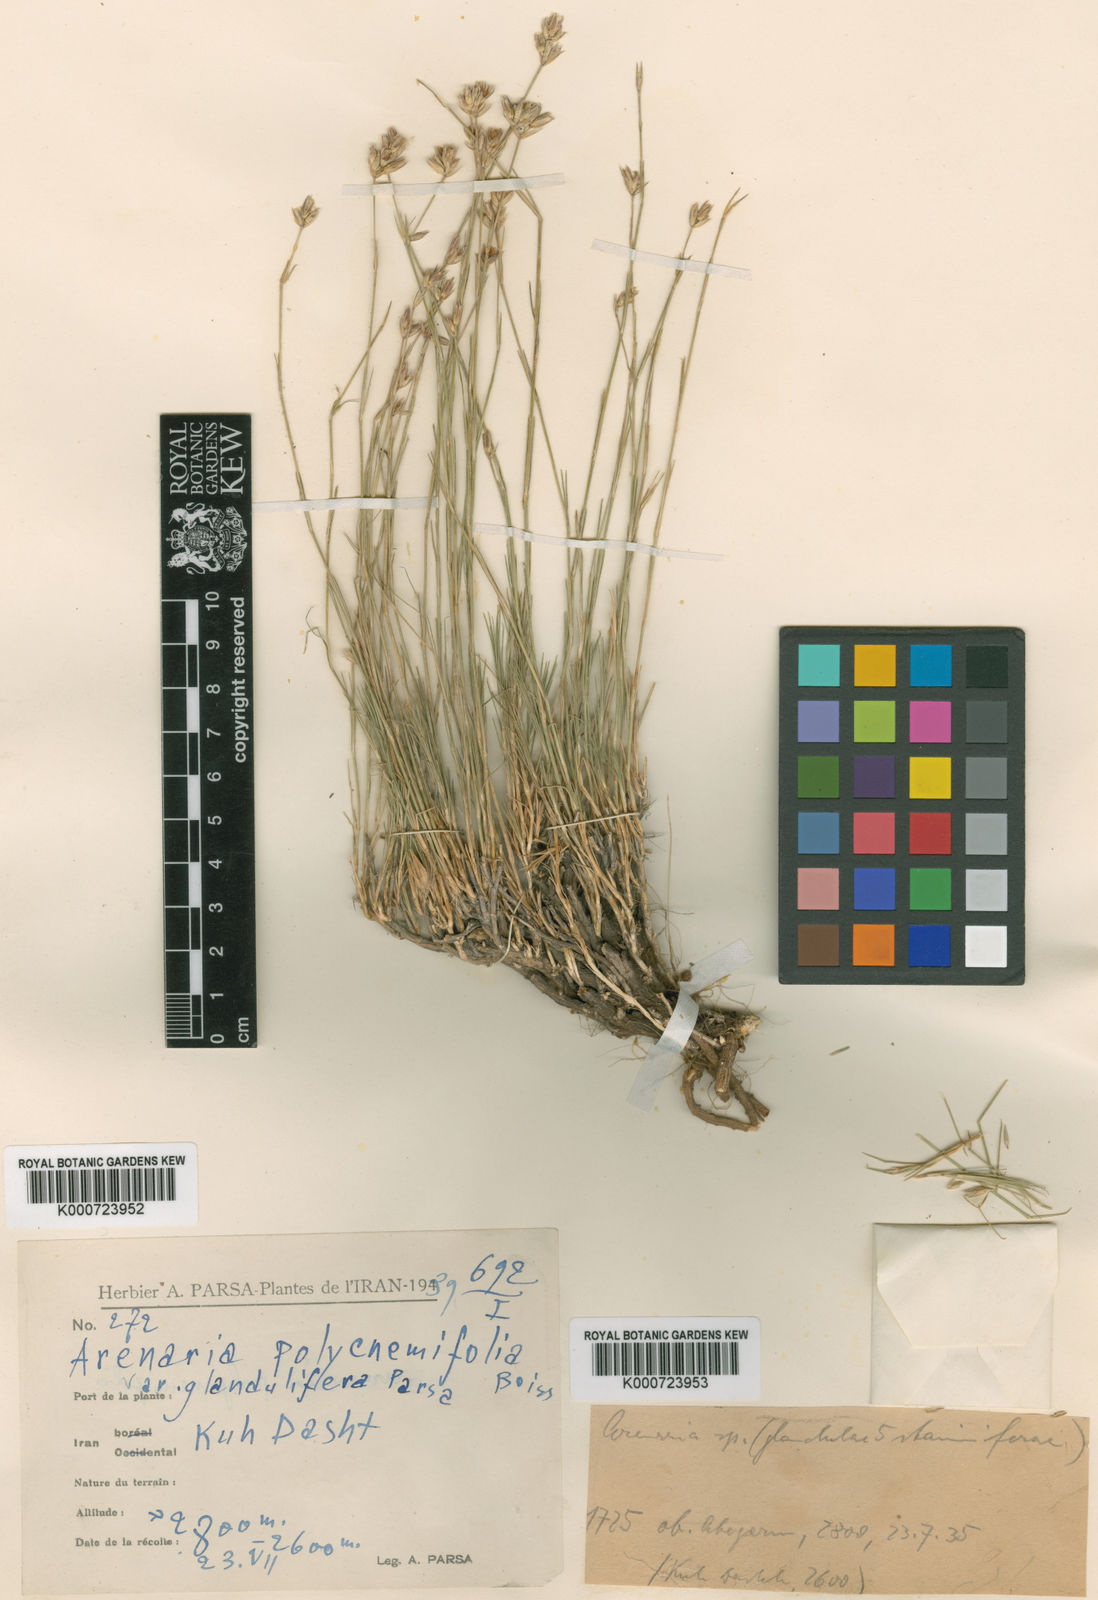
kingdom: Plantae
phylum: Tracheophyta
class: Magnoliopsida
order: Caryophyllales
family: Caryophyllaceae
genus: Eremogone
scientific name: Eremogone polycnemifolia
